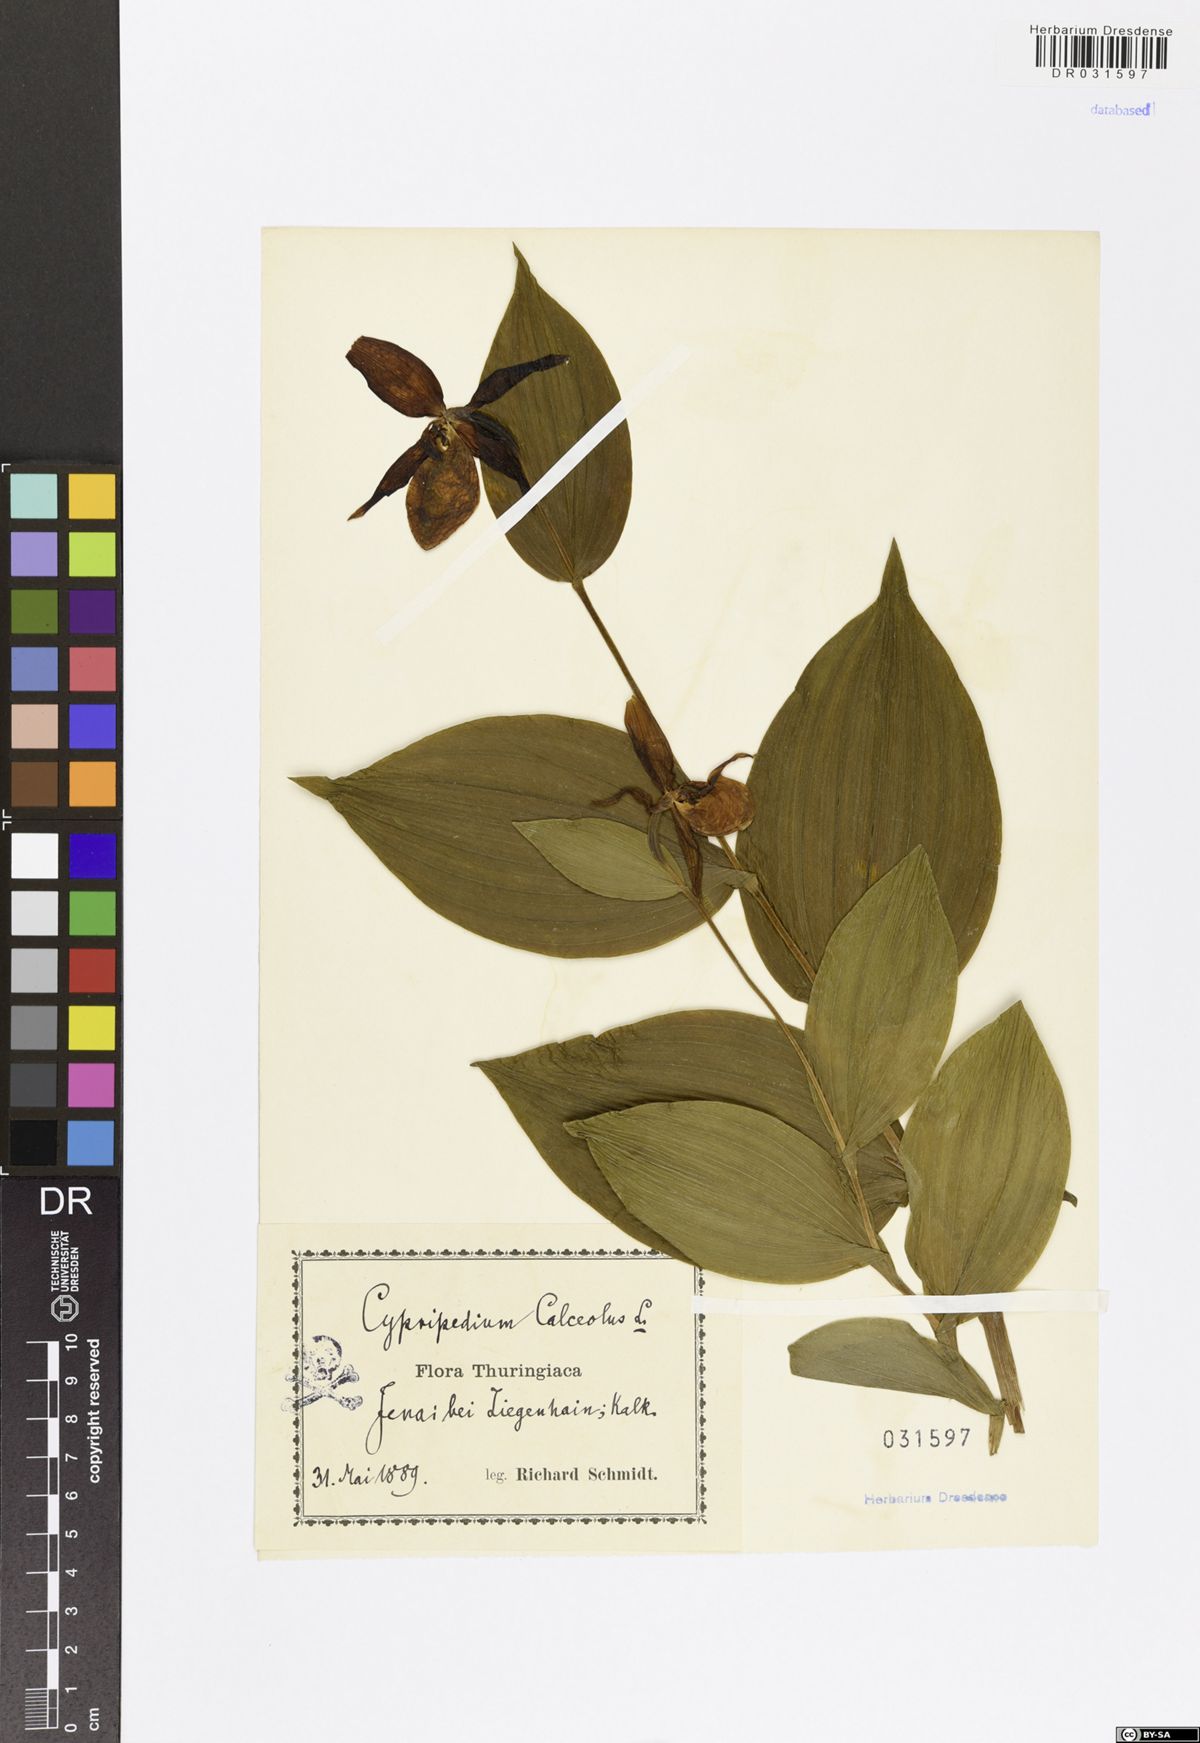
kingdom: Plantae
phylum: Tracheophyta
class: Liliopsida
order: Asparagales
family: Orchidaceae
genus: Cypripedium
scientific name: Cypripedium calceolus
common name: Lady's-slipper
